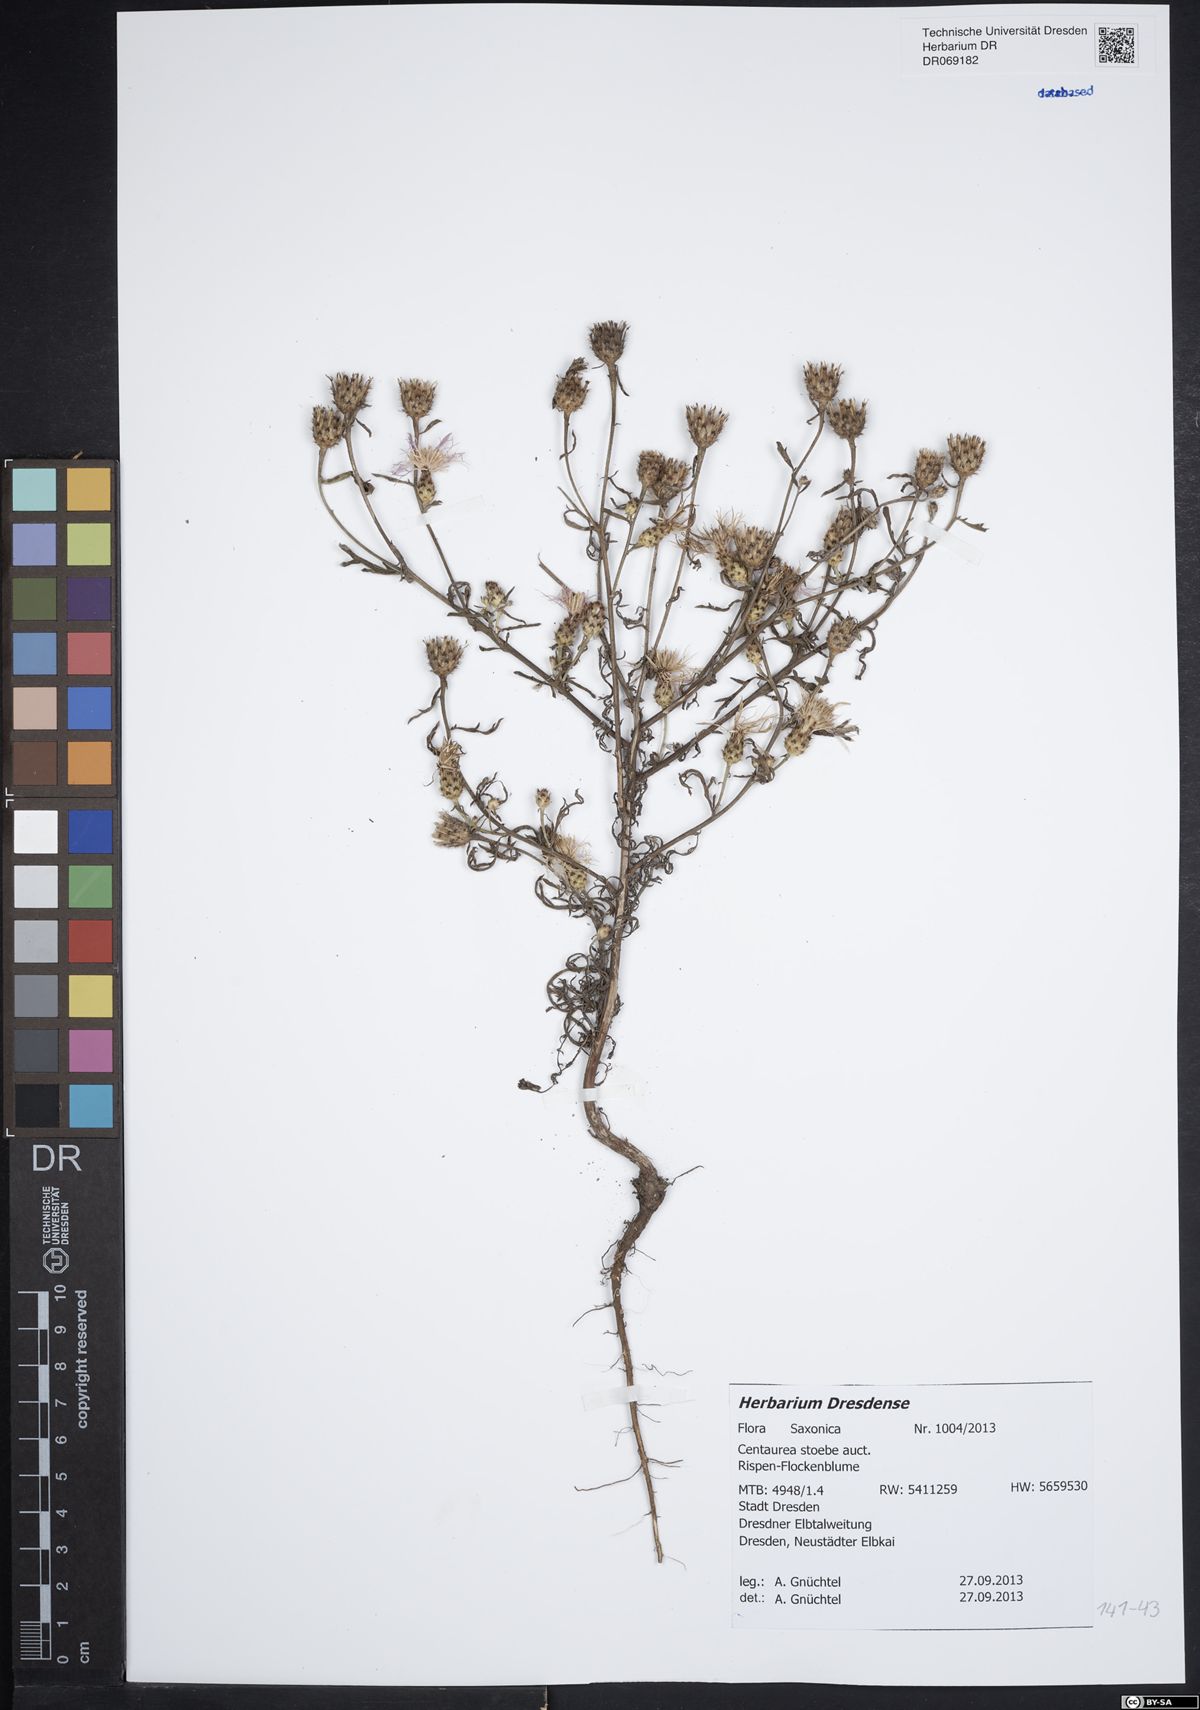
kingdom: Plantae
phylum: Tracheophyta
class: Magnoliopsida
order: Asterales
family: Asteraceae
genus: Centaurea
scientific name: Centaurea stoebe
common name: Spotted knapweed
